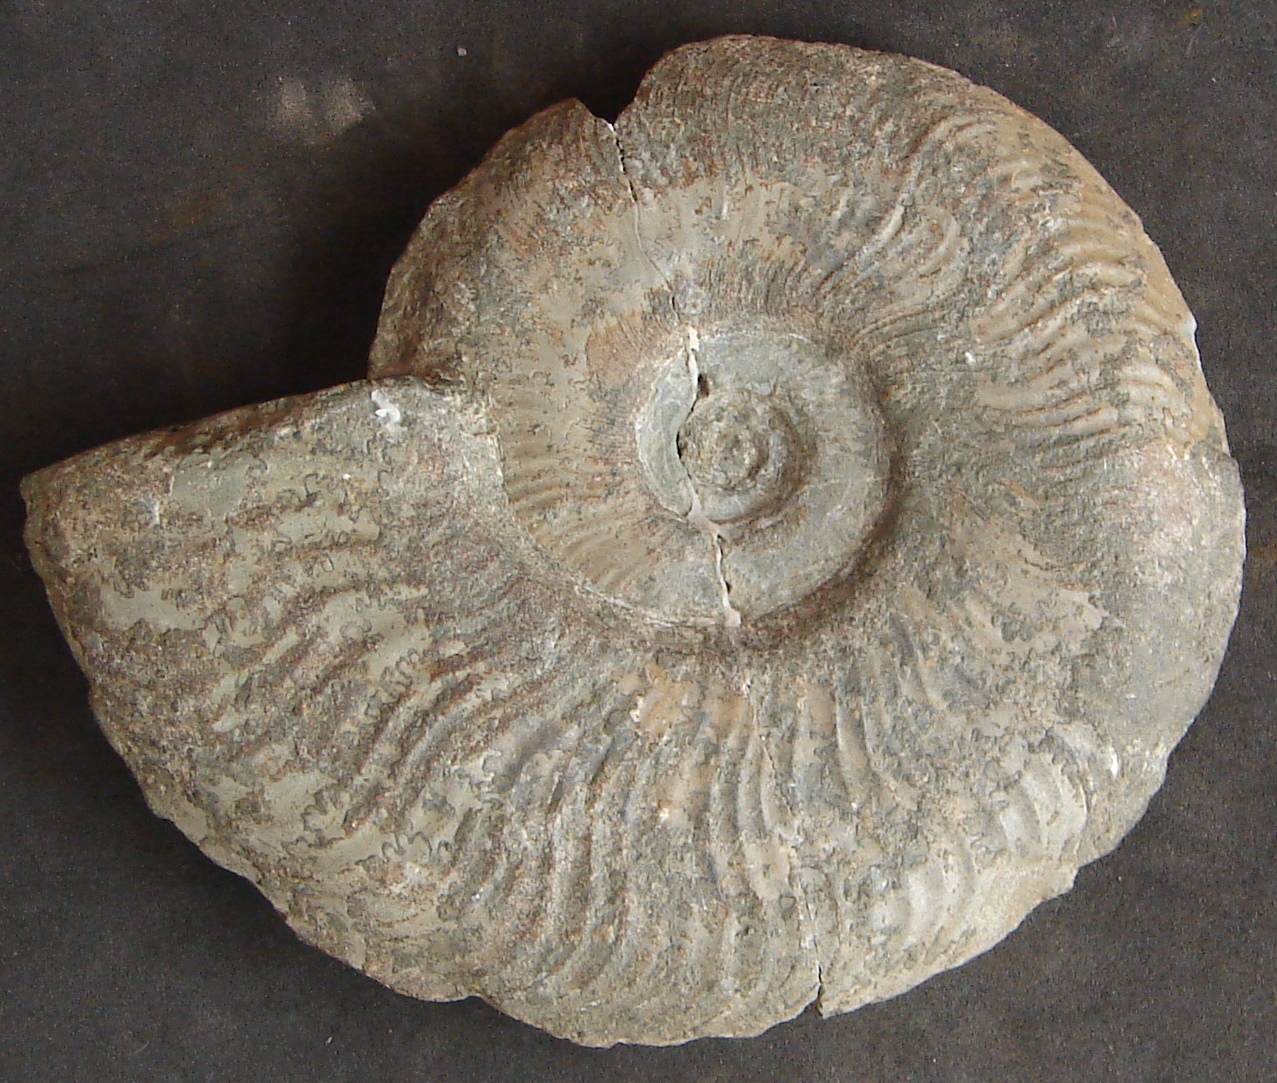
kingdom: Animalia
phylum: Mollusca
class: Cephalopoda
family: Hildoceratidae
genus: Pleydellia
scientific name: Pleydellia
